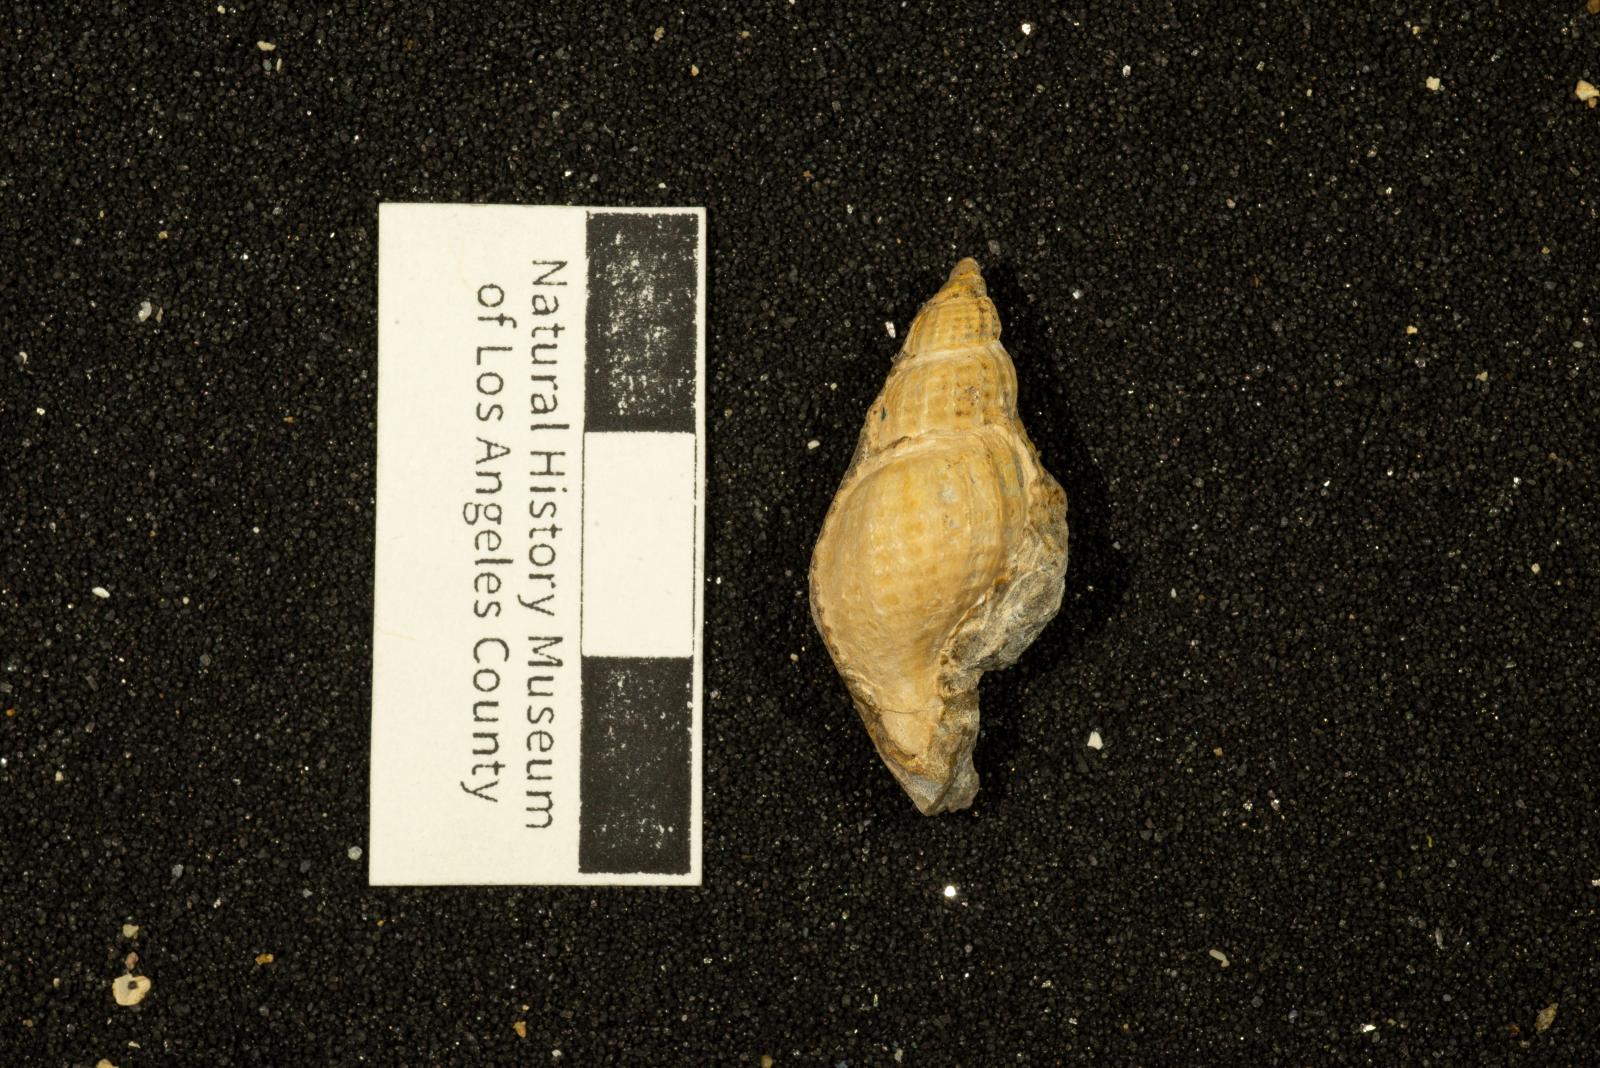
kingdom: Animalia
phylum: Mollusca
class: Gastropoda
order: Neogastropoda
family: Fasciolariidae
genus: Anomalofusus
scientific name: Anomalofusus
